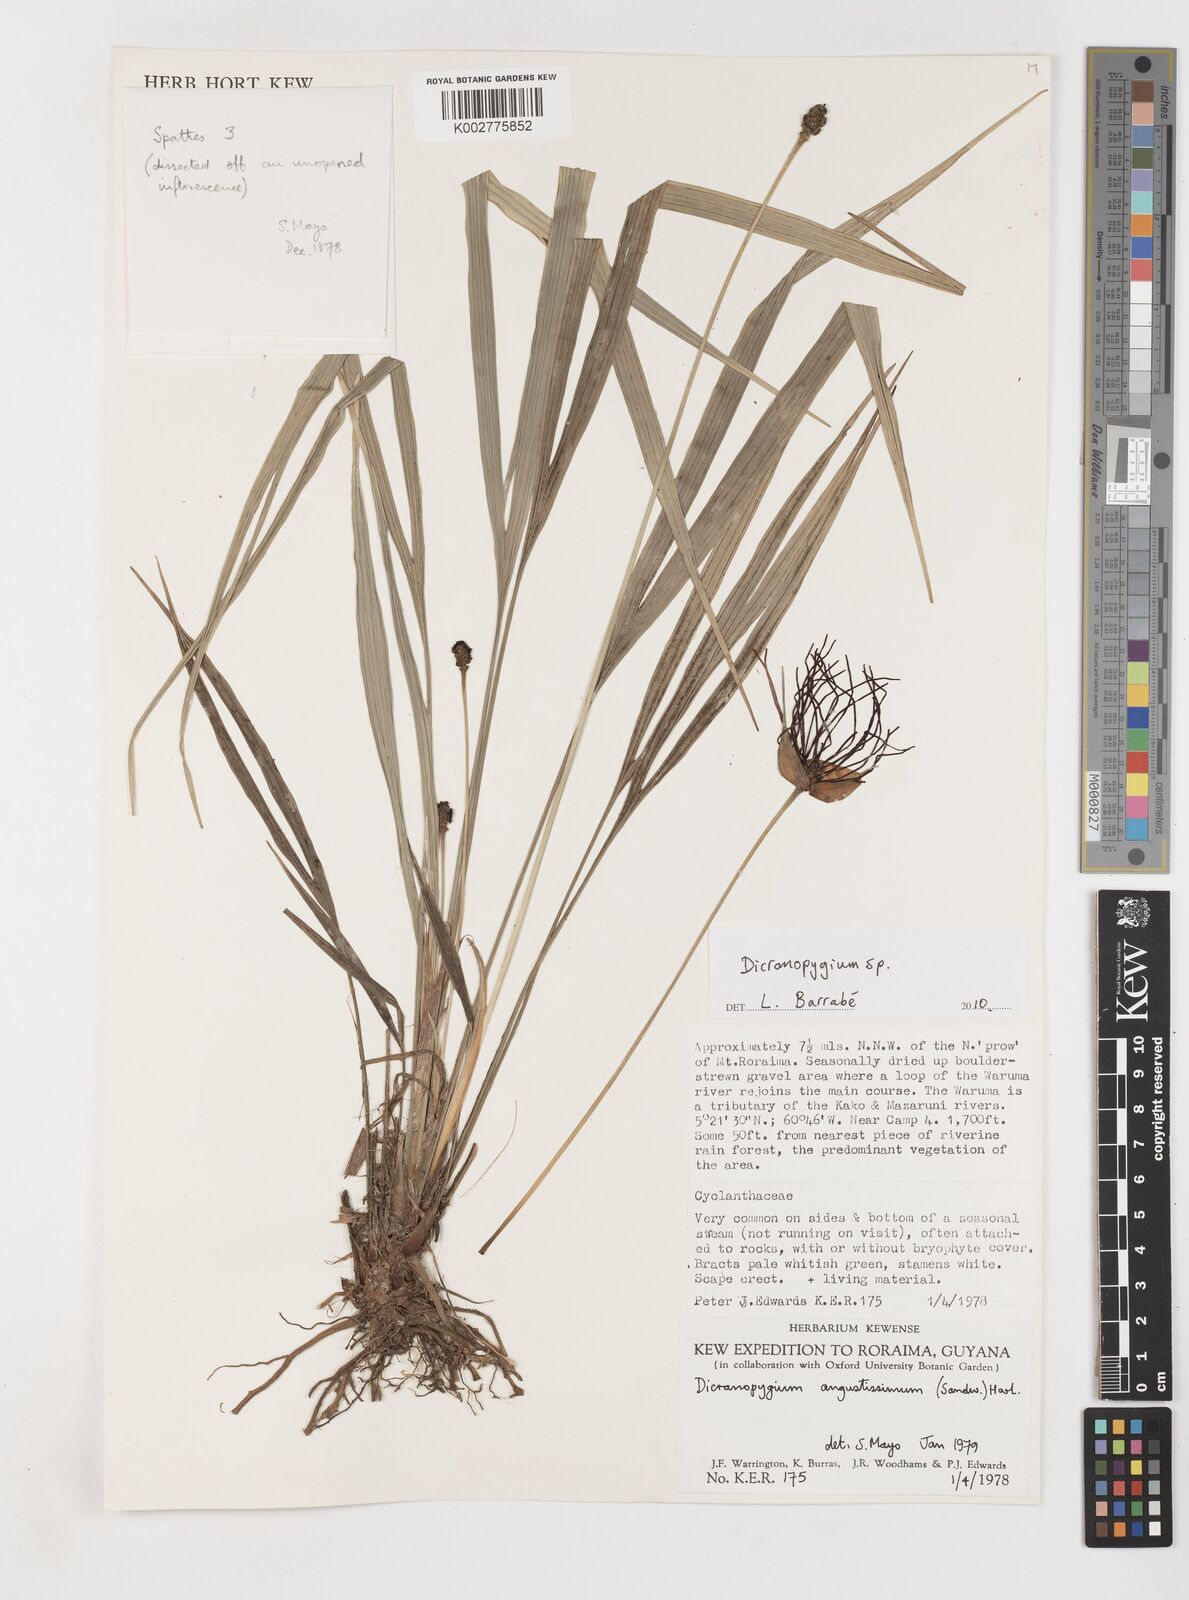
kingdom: Plantae
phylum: Tracheophyta
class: Liliopsida
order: Pandanales
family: Cyclanthaceae
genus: Dicranopygium
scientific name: Dicranopygium
